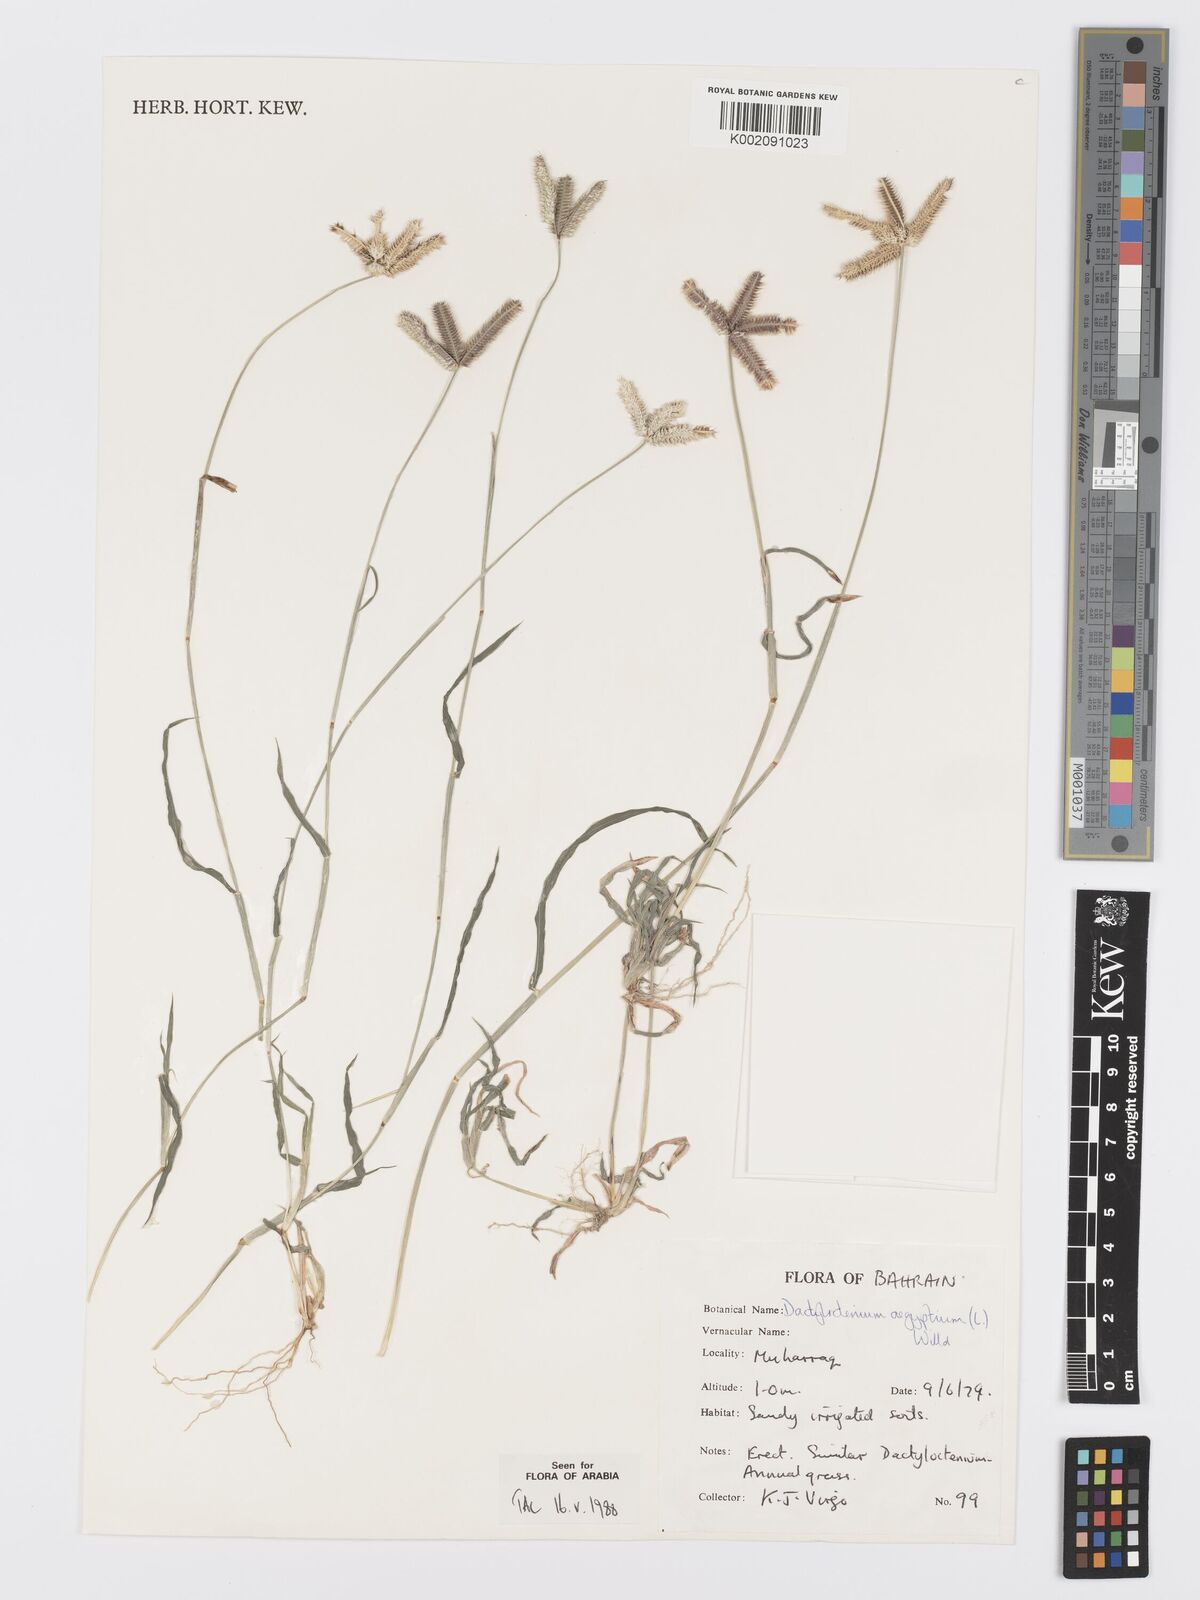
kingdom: Plantae
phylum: Tracheophyta
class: Liliopsida
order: Poales
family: Poaceae
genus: Dactyloctenium
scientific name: Dactyloctenium aegyptium
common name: Egyptian grass
